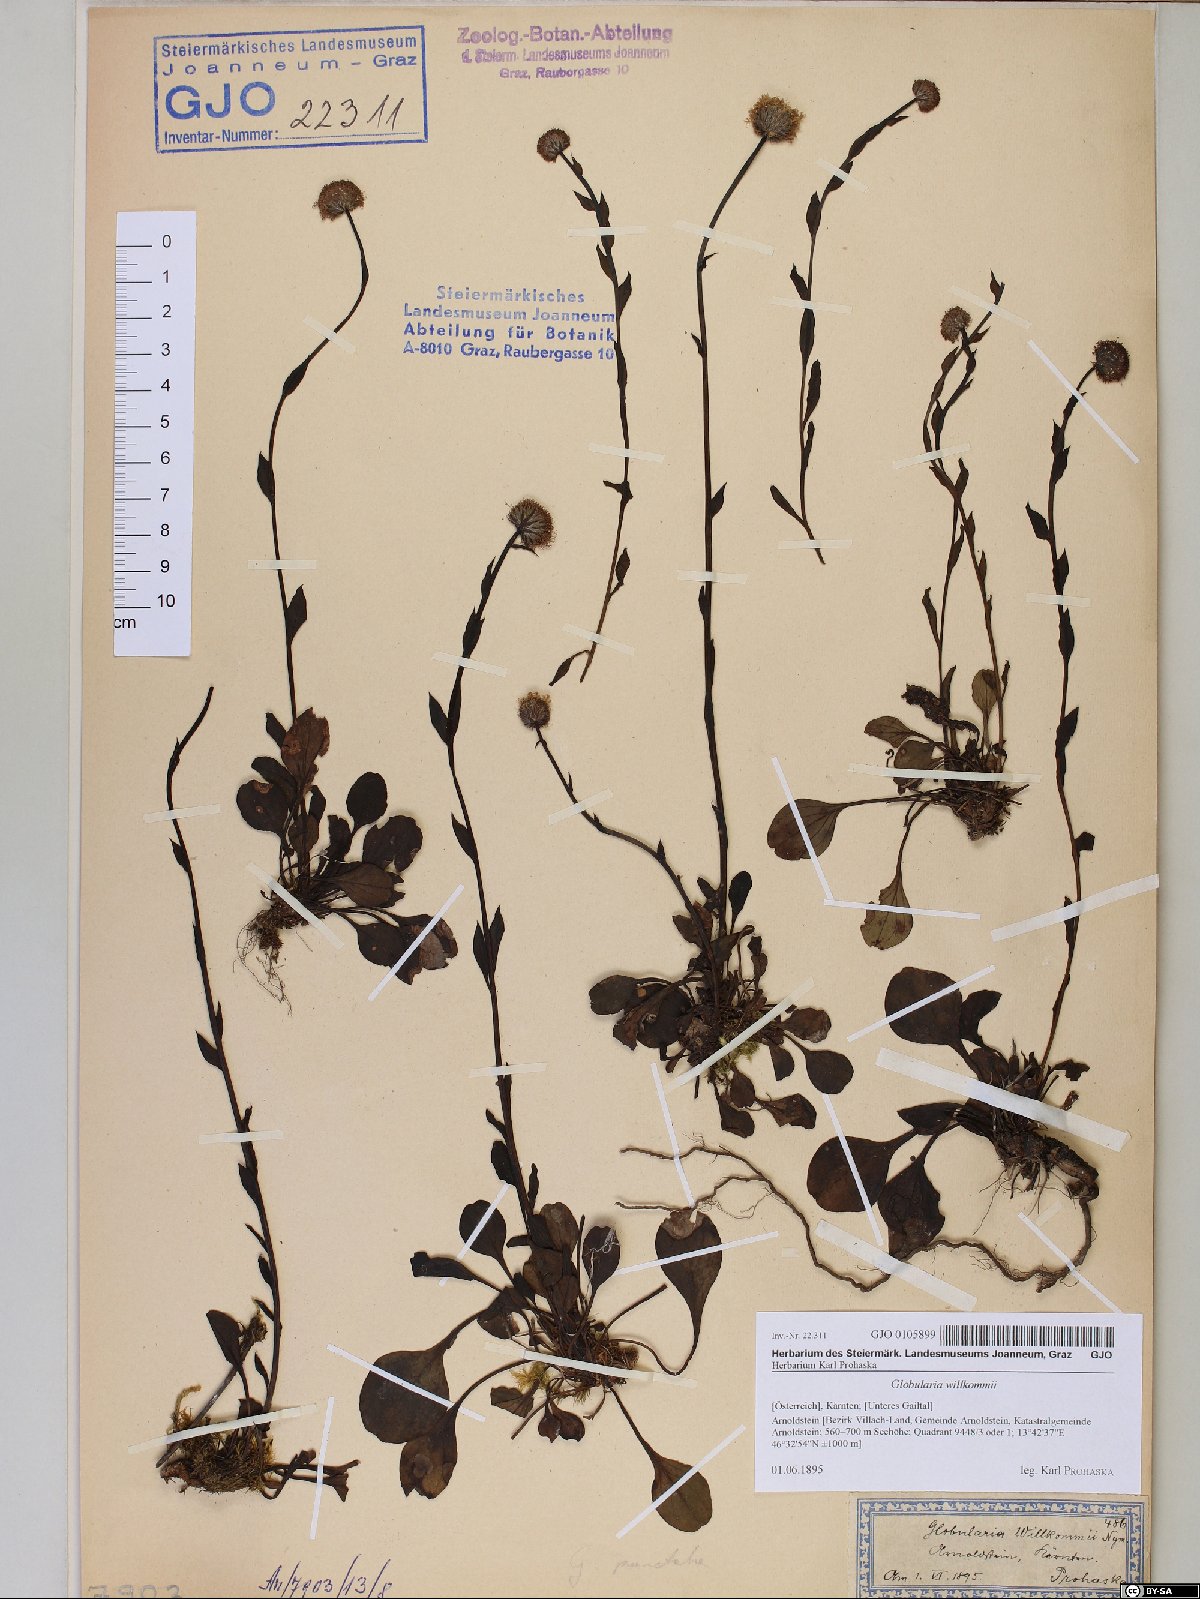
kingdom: Plantae
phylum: Tracheophyta
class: Magnoliopsida
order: Lamiales
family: Plantaginaceae
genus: Globularia
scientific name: Globularia bisnagarica
